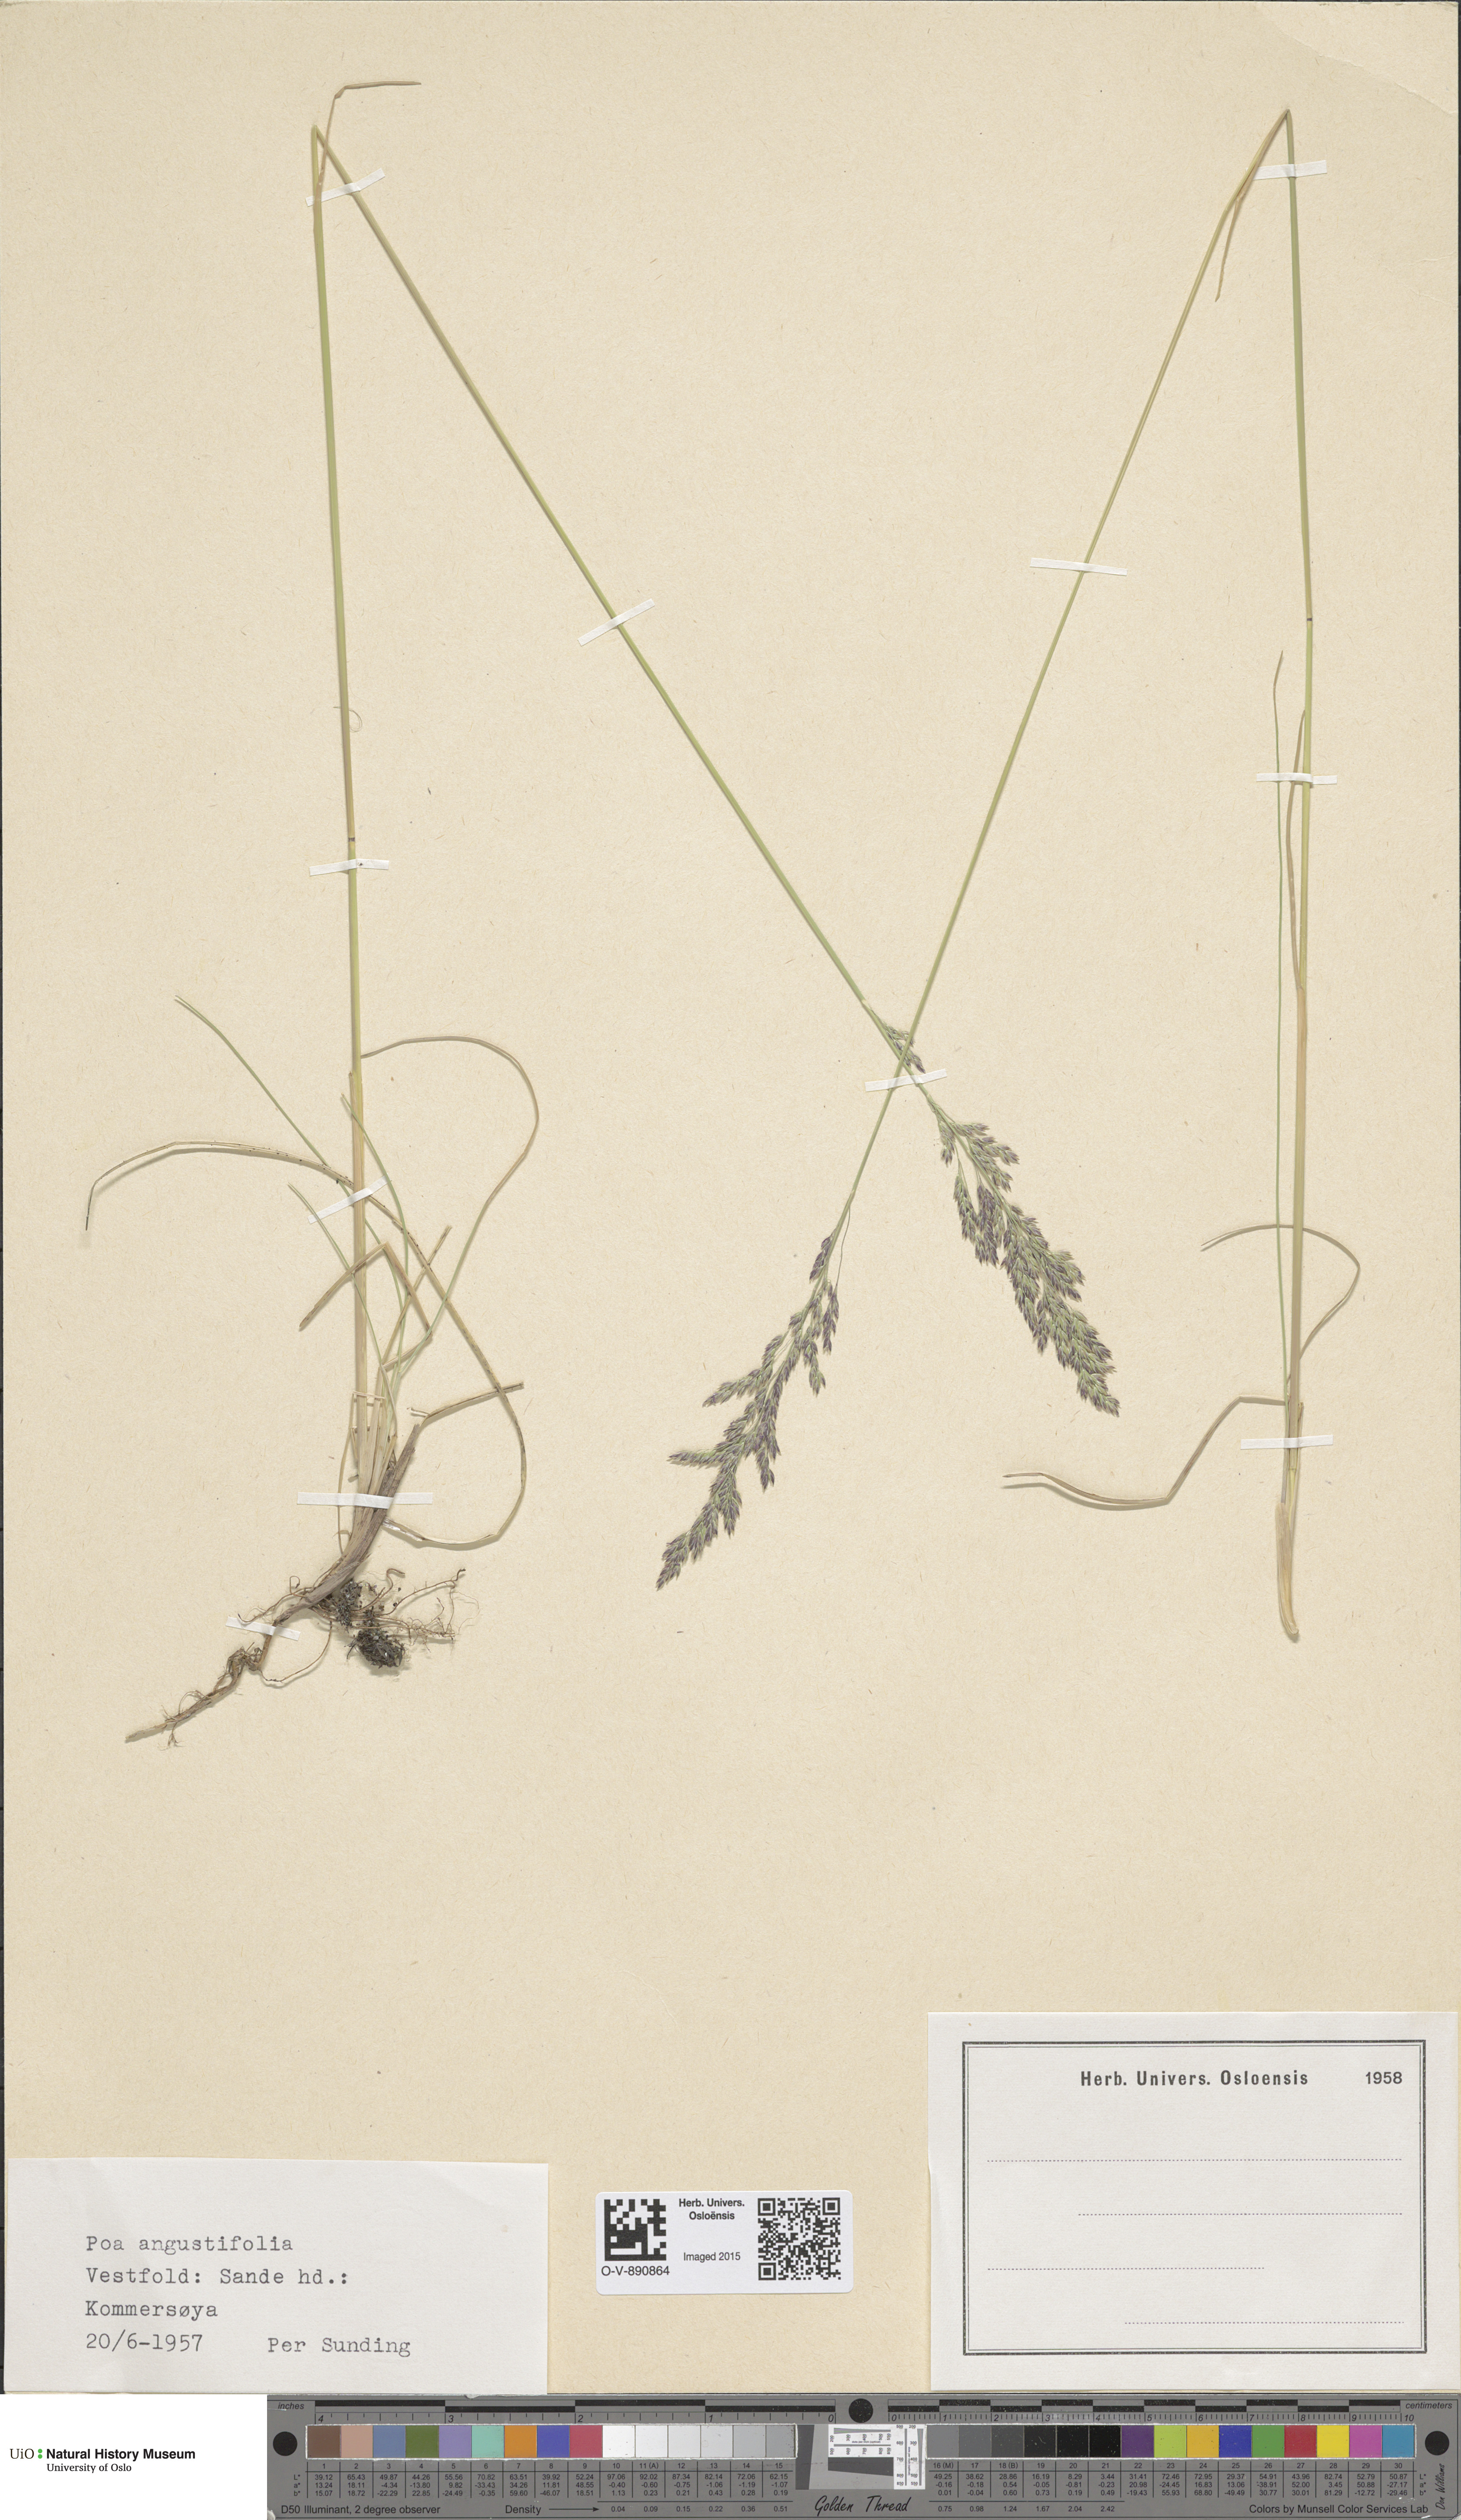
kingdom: Plantae
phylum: Tracheophyta
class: Liliopsida
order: Poales
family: Poaceae
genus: Poa
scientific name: Poa angustifolia
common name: Narrow-leaved meadow-grass
